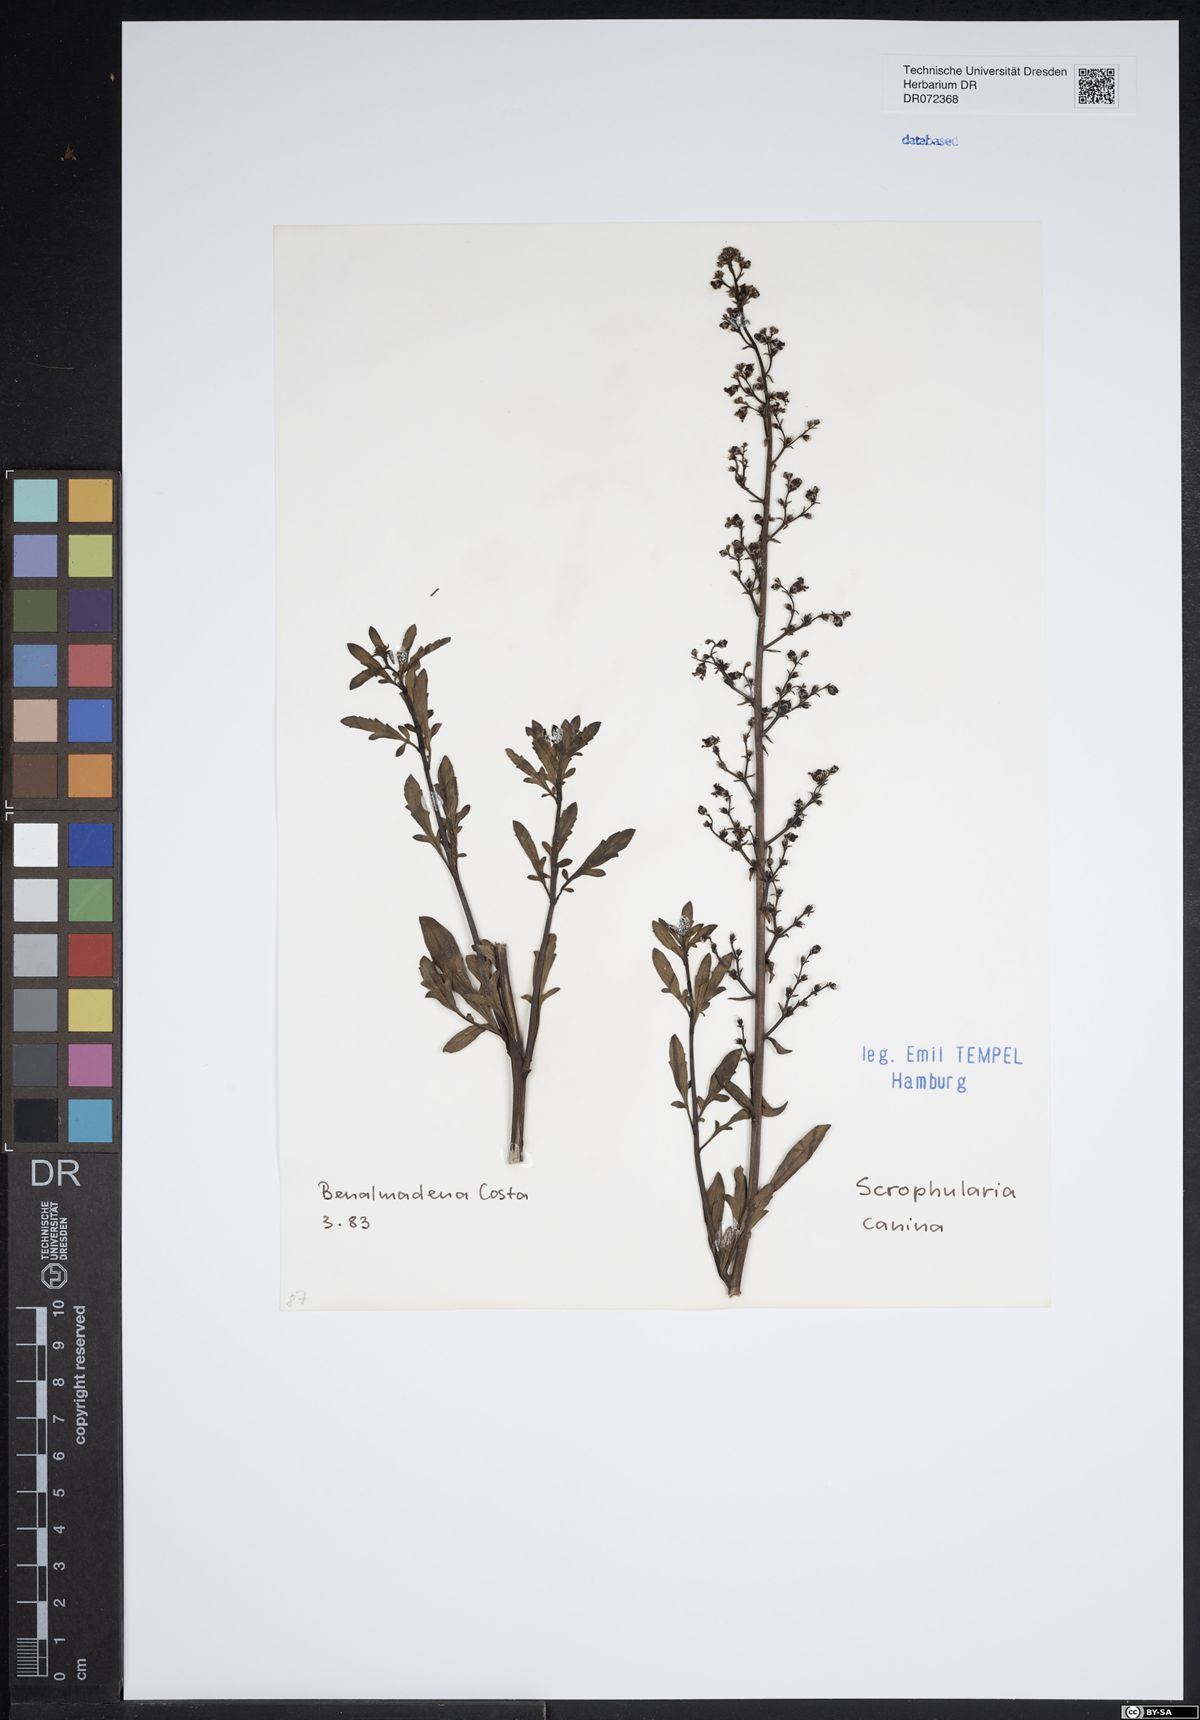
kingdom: Plantae
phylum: Tracheophyta
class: Magnoliopsida
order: Lamiales
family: Scrophulariaceae
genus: Scrophularia
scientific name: Scrophularia canina
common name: French figwort
